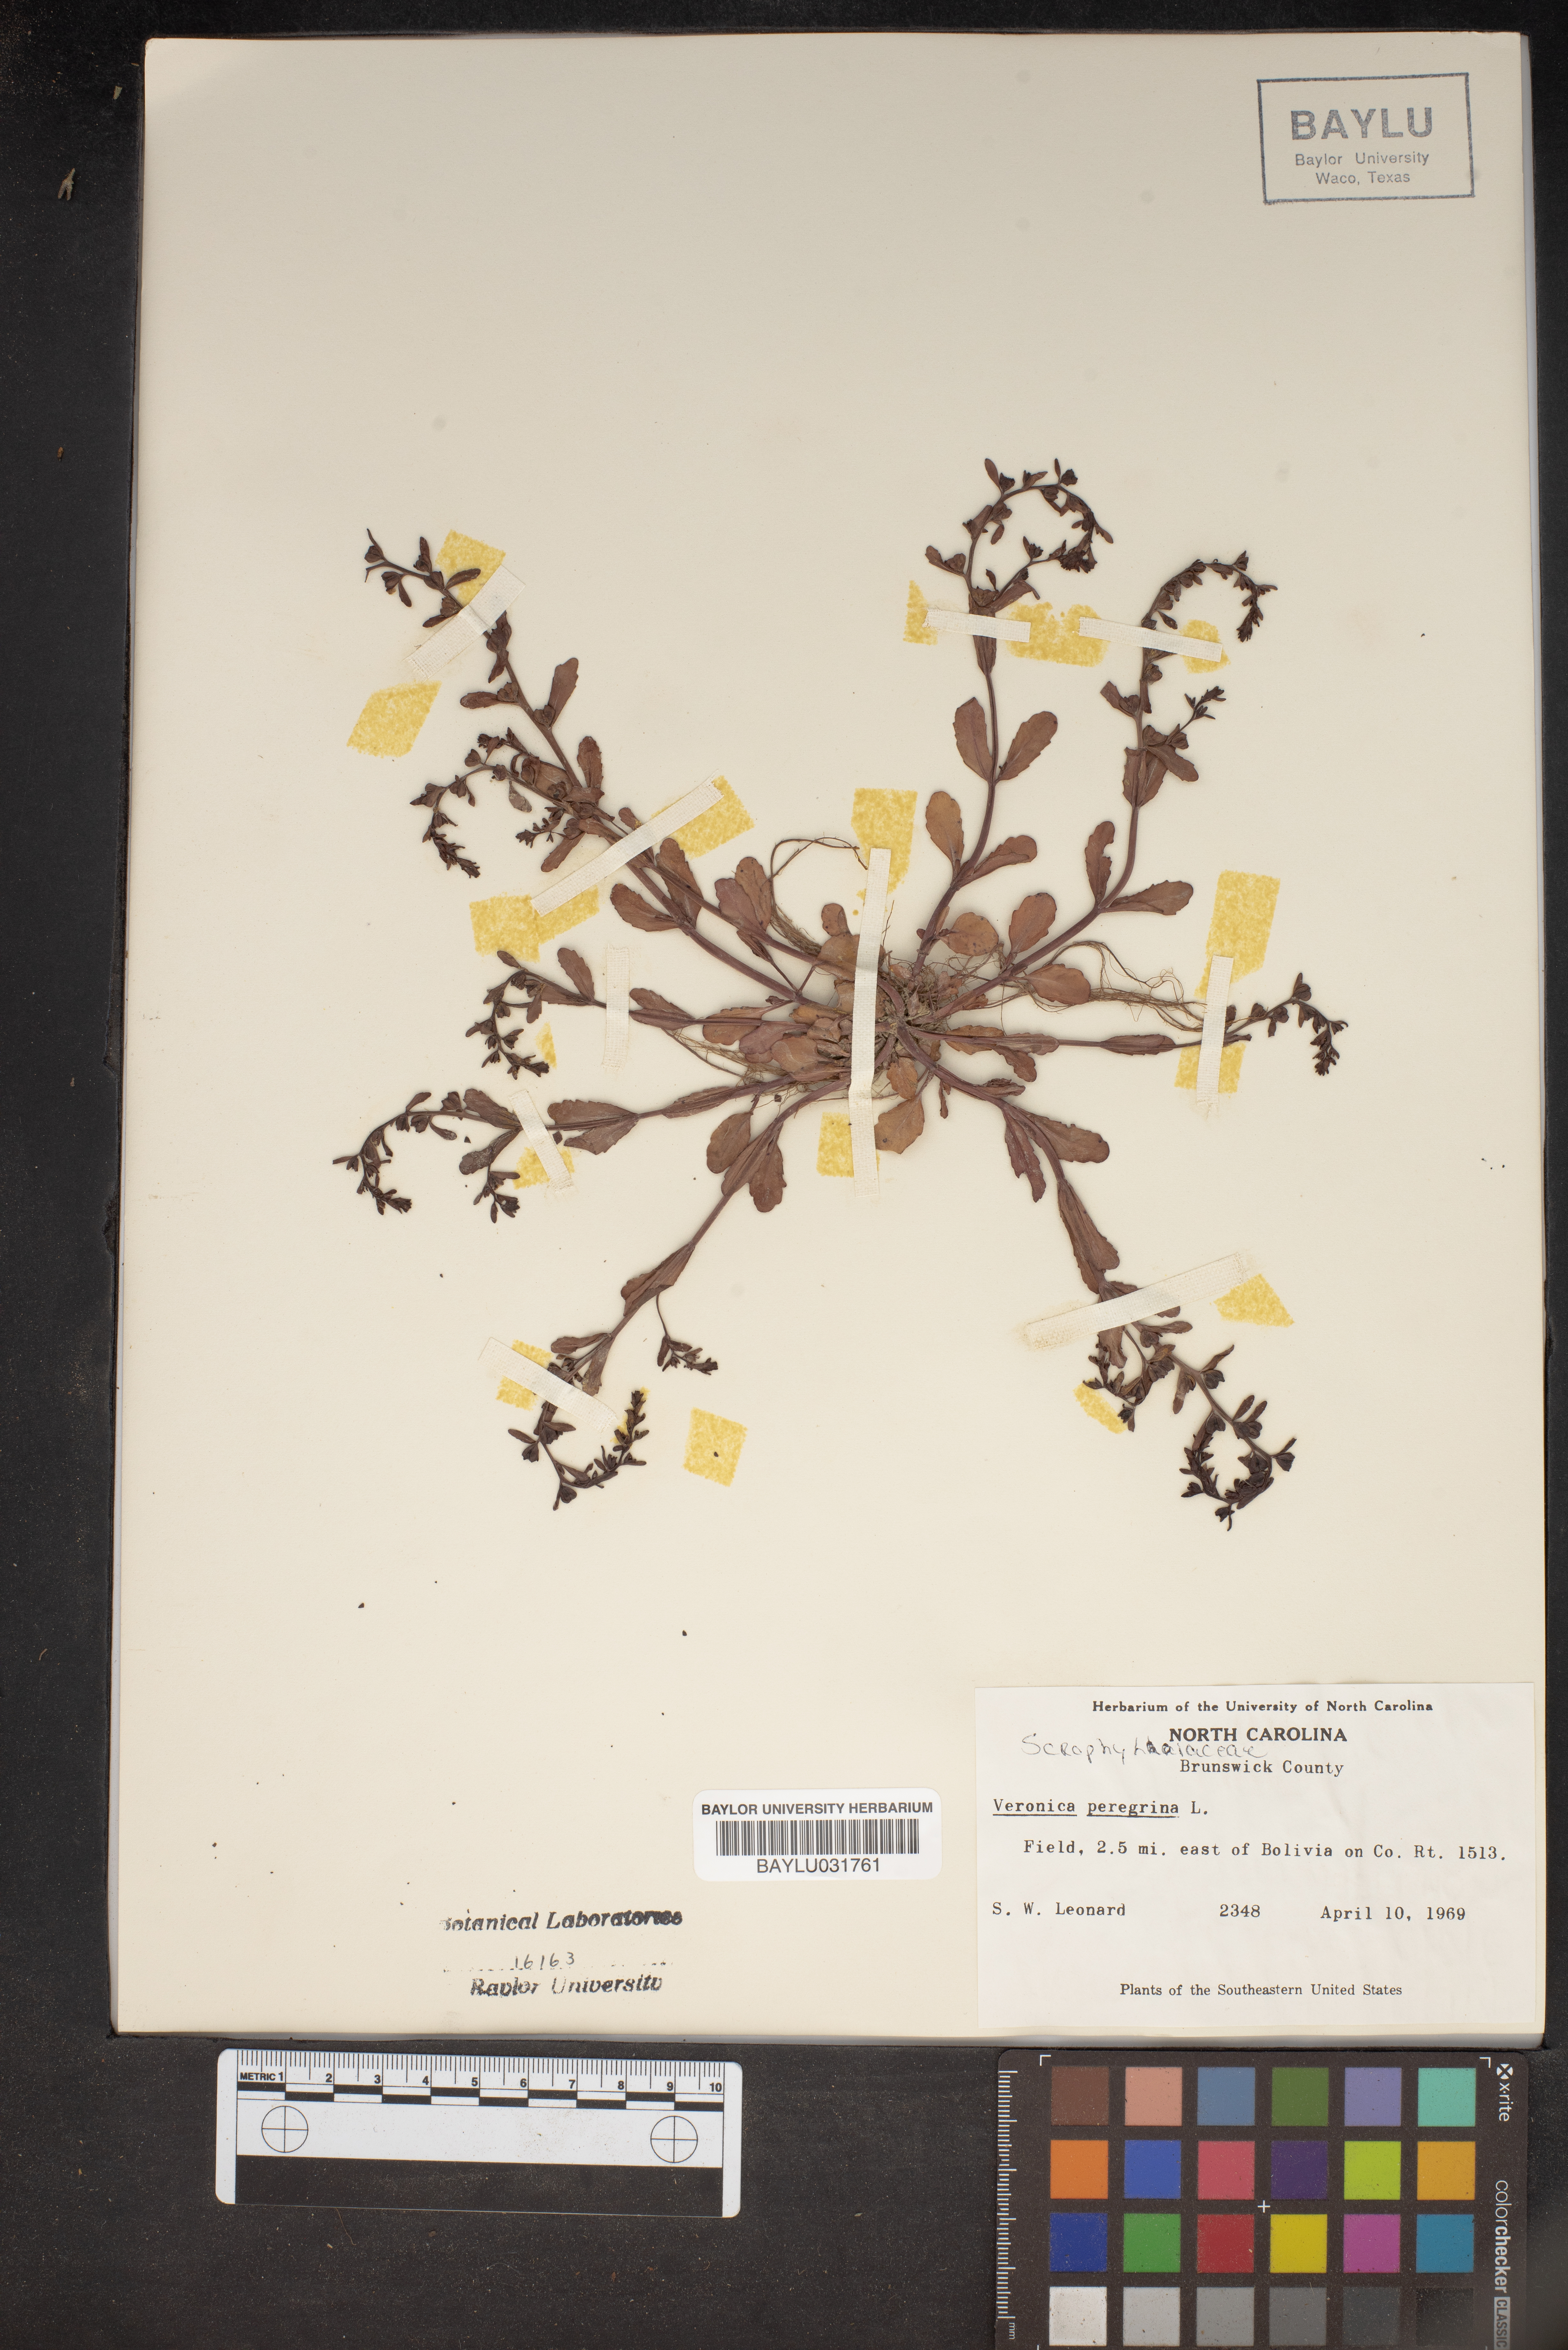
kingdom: Plantae
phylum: Tracheophyta
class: Magnoliopsida
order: Lamiales
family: Plantaginaceae
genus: Veronica
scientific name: Veronica peregrina
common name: Neckweed
